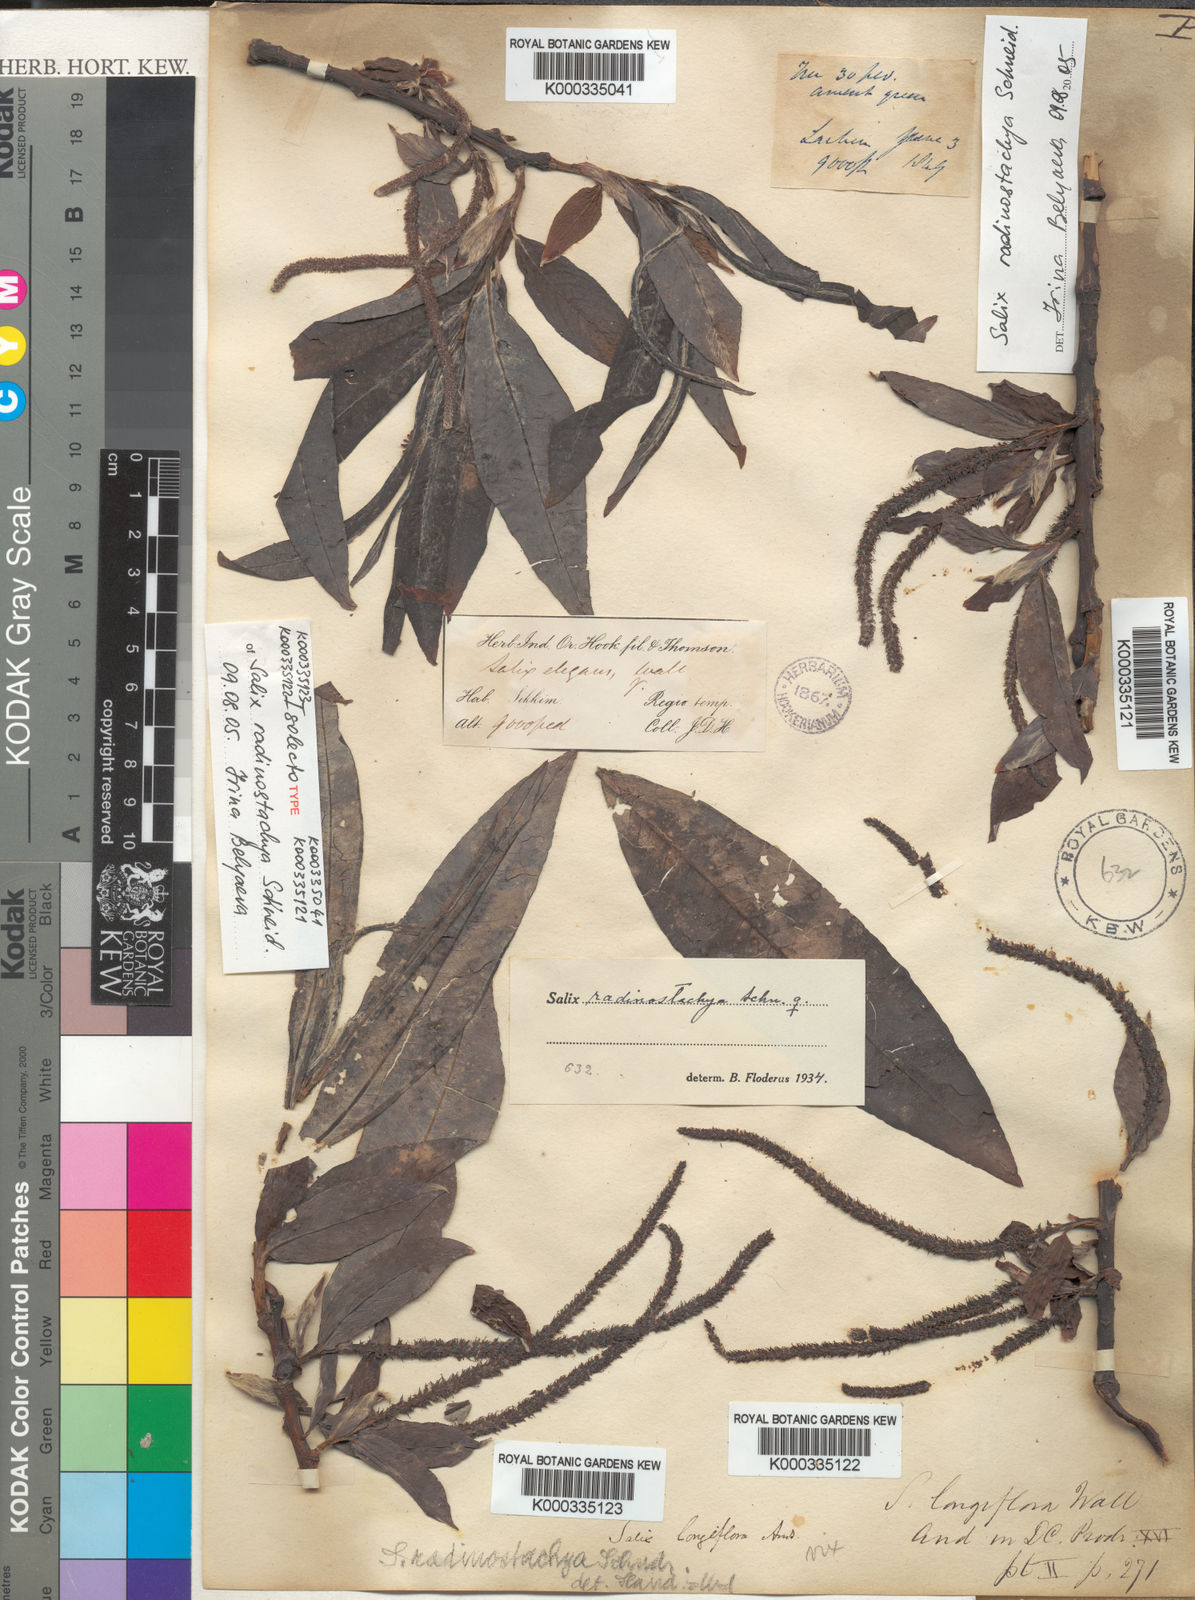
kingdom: Plantae
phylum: Tracheophyta
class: Magnoliopsida
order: Malpighiales
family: Salicaceae
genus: Salix
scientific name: Salix radinostachya
